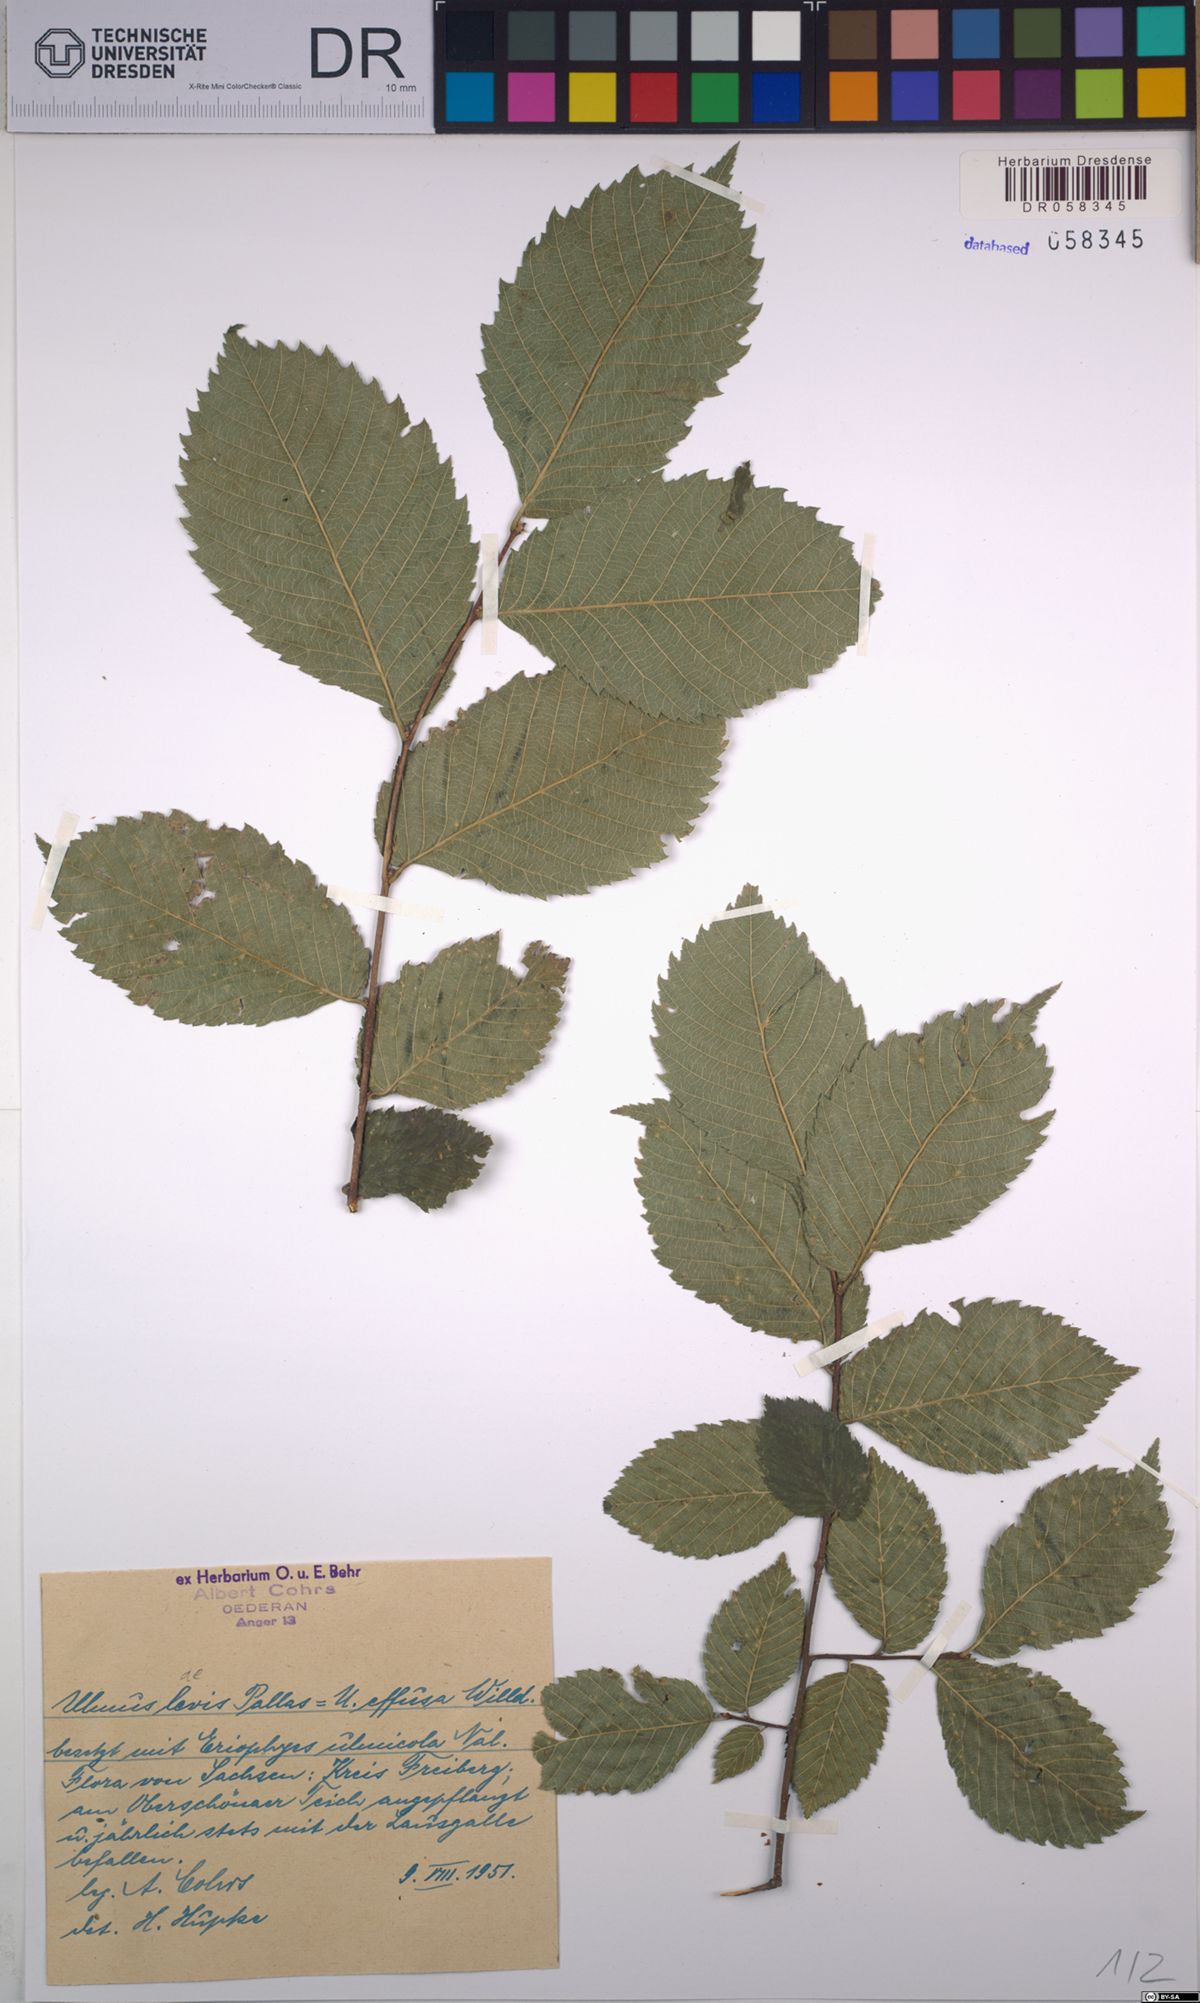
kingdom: Plantae
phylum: Tracheophyta
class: Magnoliopsida
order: Rosales
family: Ulmaceae
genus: Ulmus
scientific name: Ulmus laevis
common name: European white-elm
